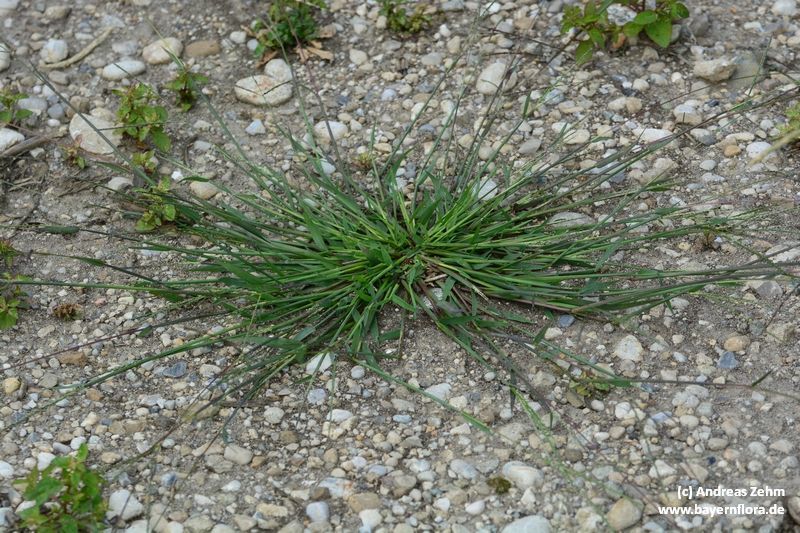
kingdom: Plantae
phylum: Tracheophyta
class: Liliopsida
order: Poales
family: Poaceae
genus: Digitaria
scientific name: Digitaria ischaemum
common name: Smooth crabgrass
